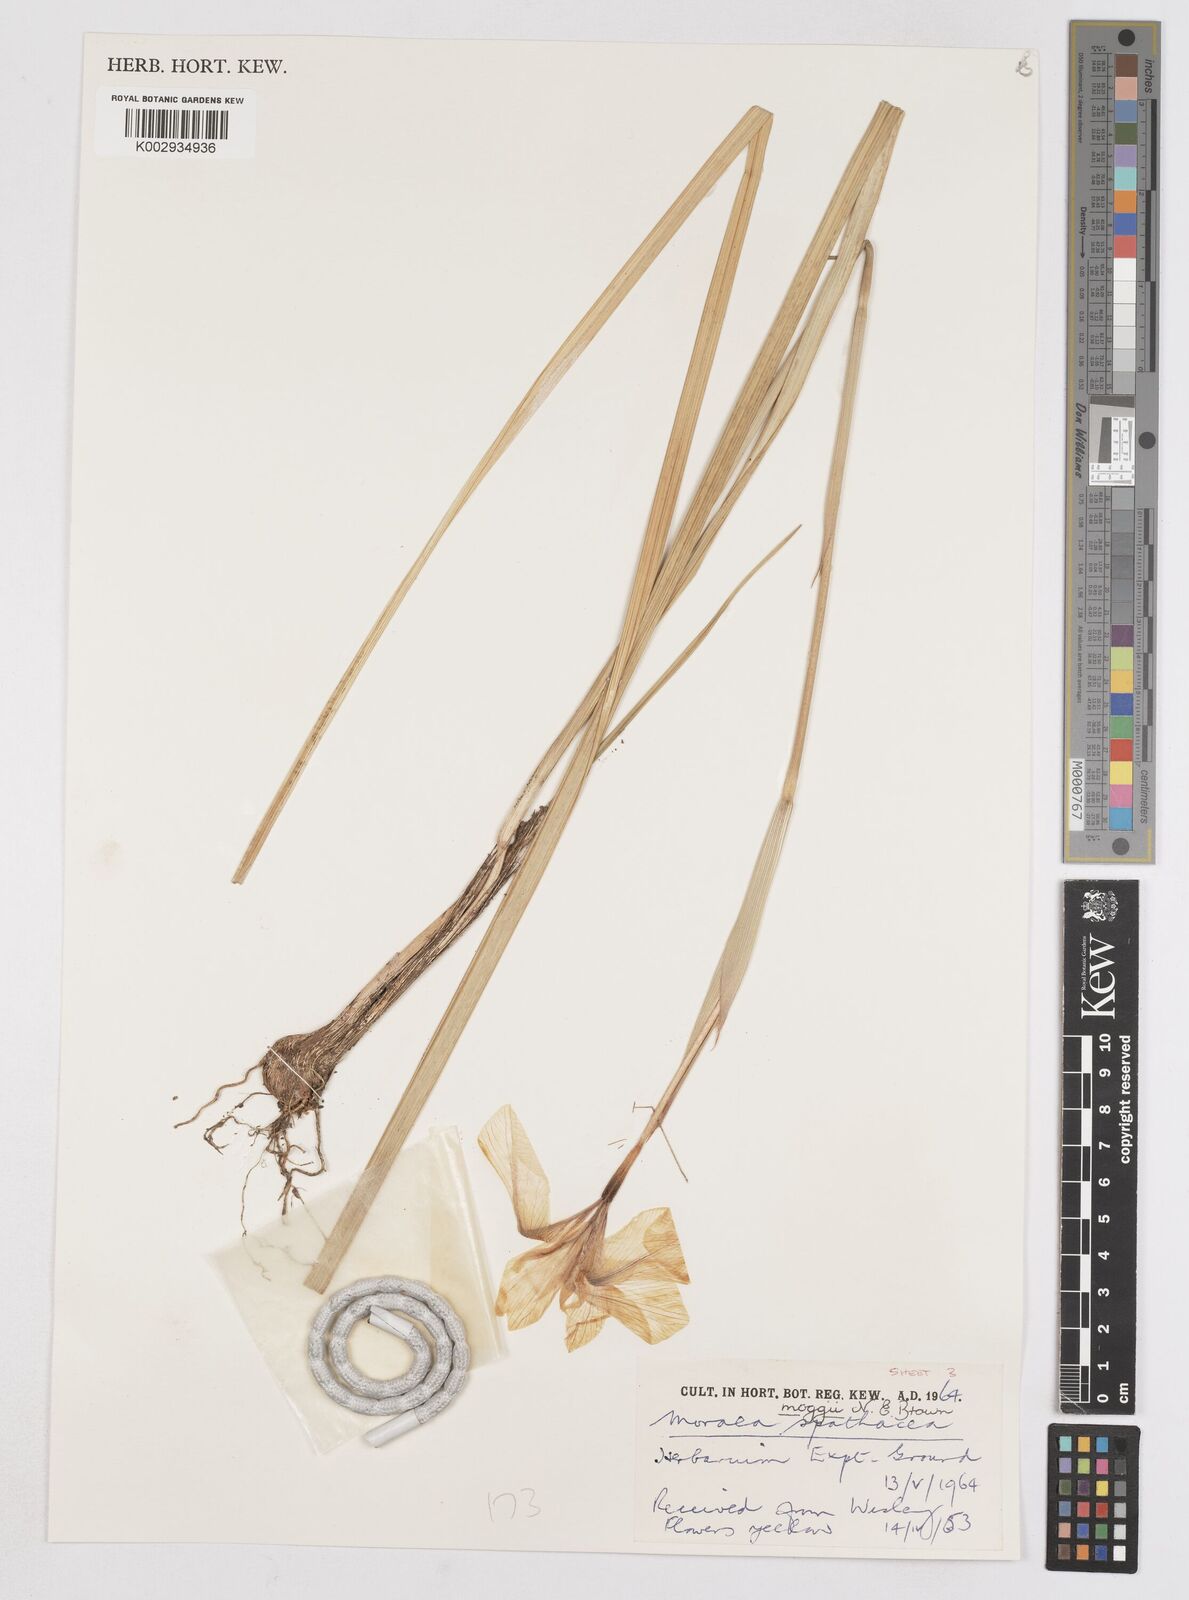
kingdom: Plantae
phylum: Tracheophyta
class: Liliopsida
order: Asparagales
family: Iridaceae
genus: Moraea
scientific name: Moraea moggii
